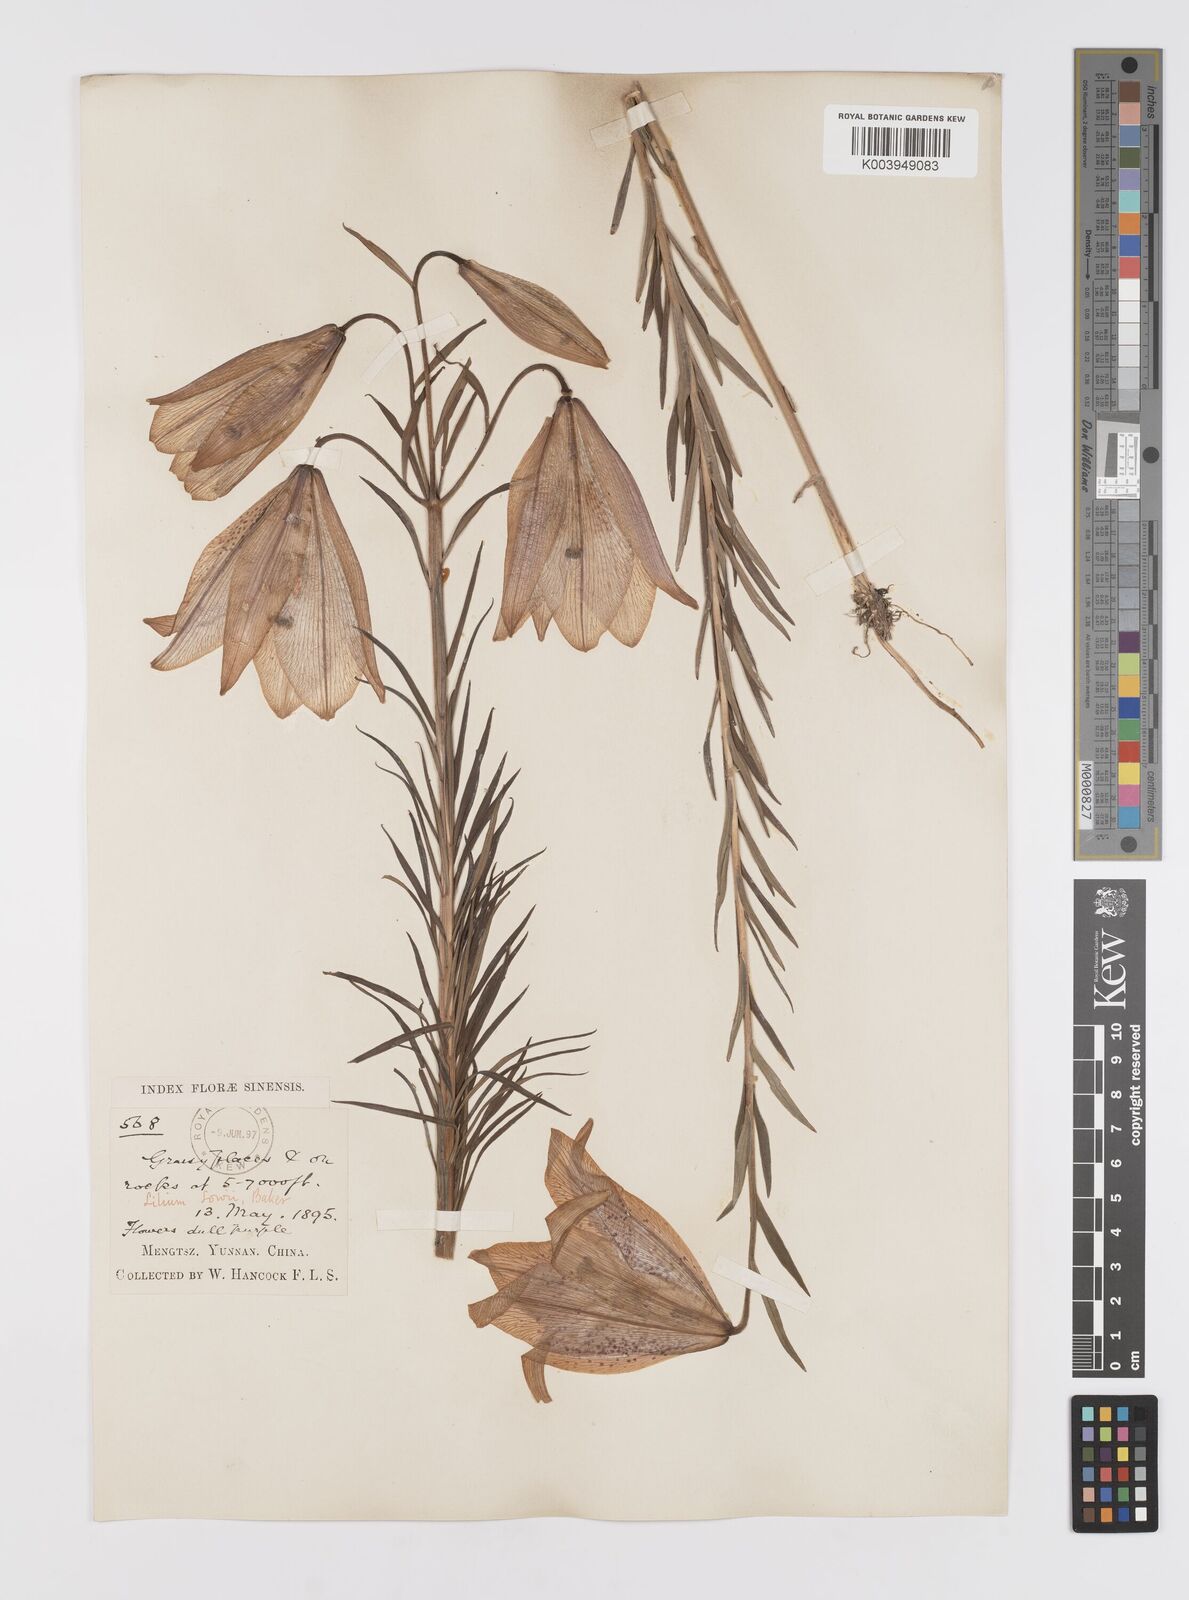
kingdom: Plantae
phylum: Tracheophyta
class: Liliopsida
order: Liliales
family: Liliaceae
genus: Lilium
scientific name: Lilium bakerianum
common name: Baker's lily
